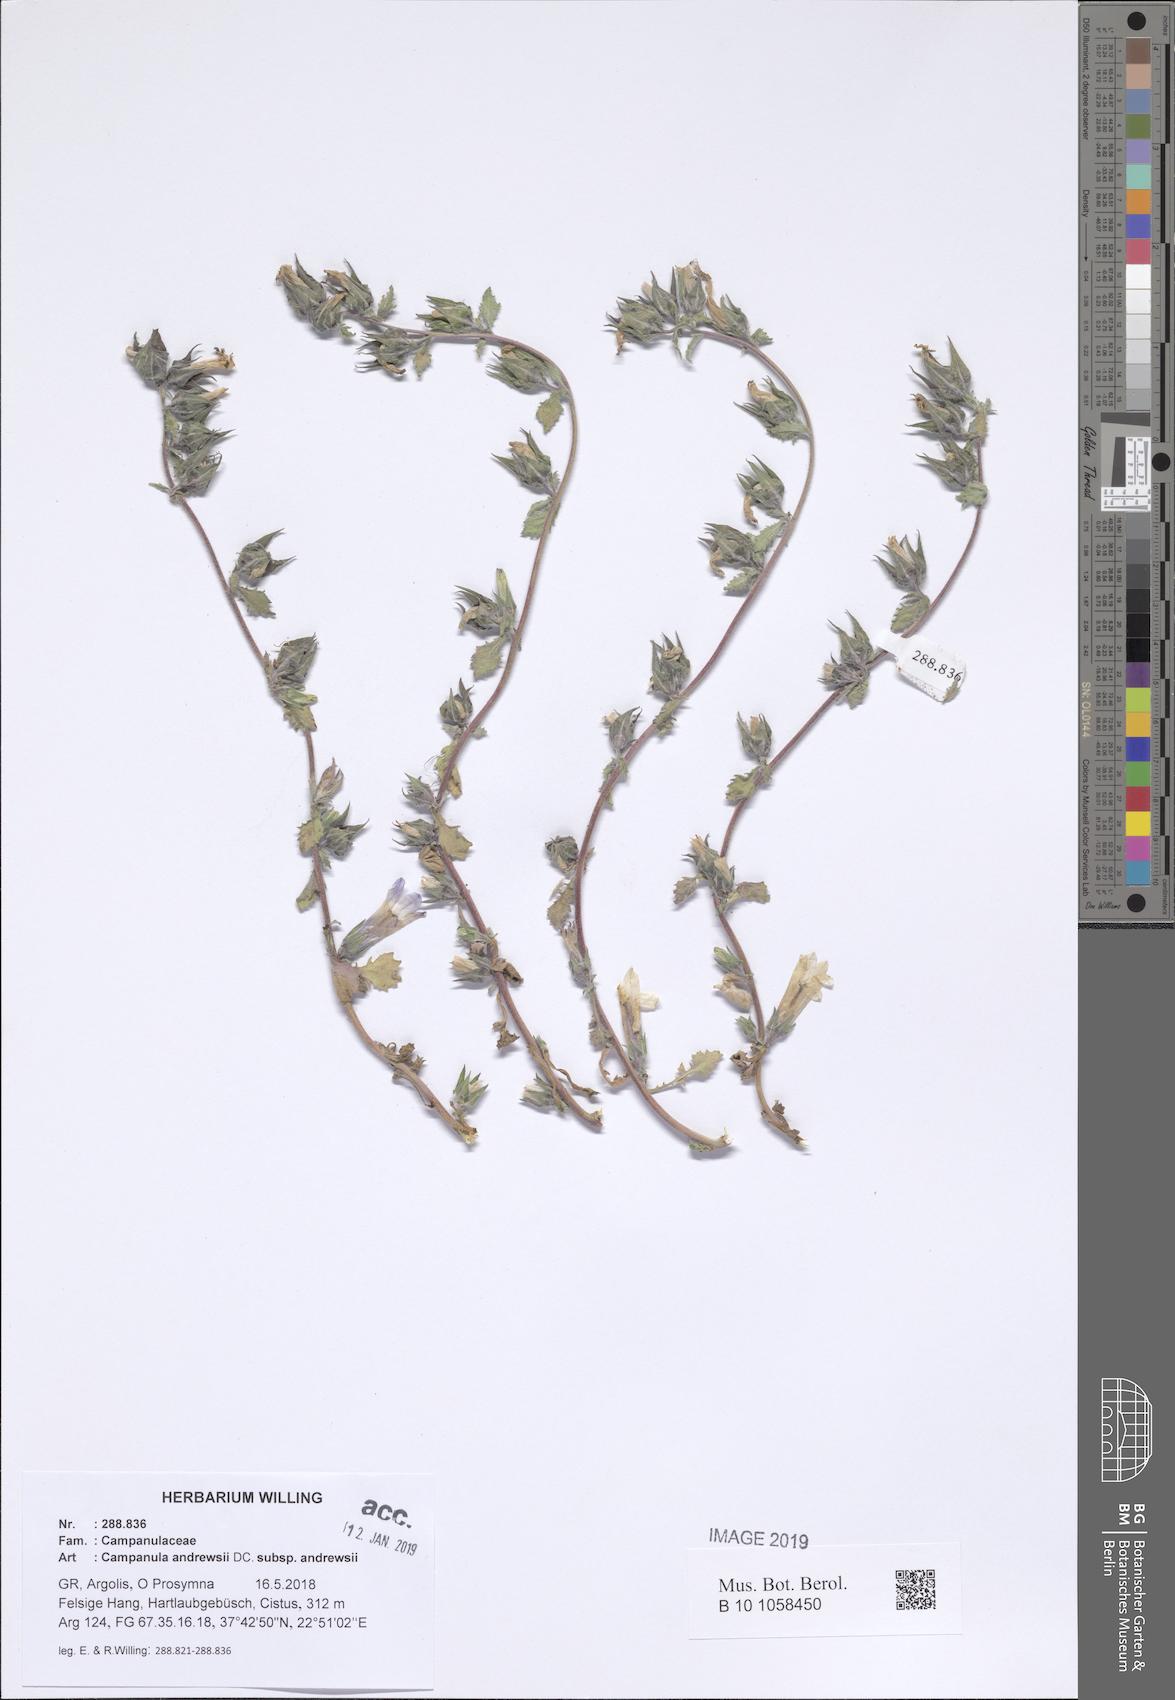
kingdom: Plantae
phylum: Tracheophyta
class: Magnoliopsida
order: Asterales
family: Campanulaceae
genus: Campanula
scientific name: Campanula andrewsii
